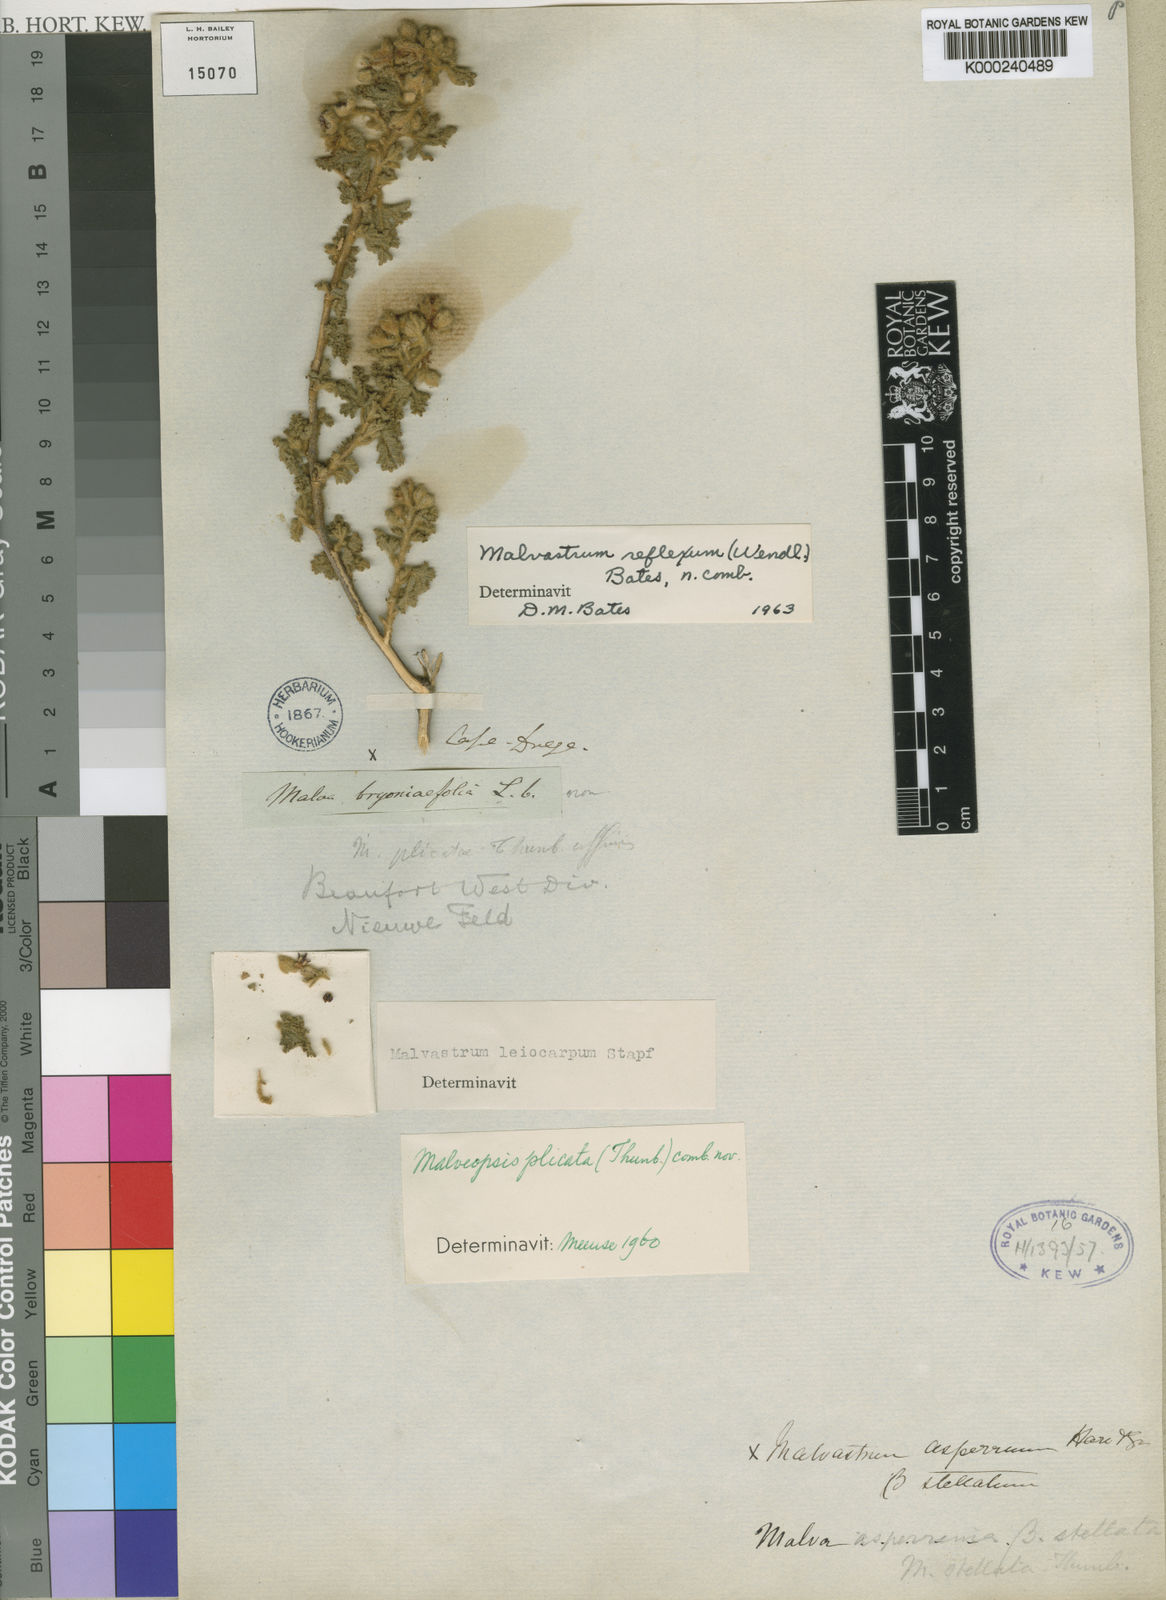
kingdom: Plantae
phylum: Tracheophyta
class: Magnoliopsida
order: Malvales
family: Malvaceae
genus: Malvastrum
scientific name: Malvastrum
